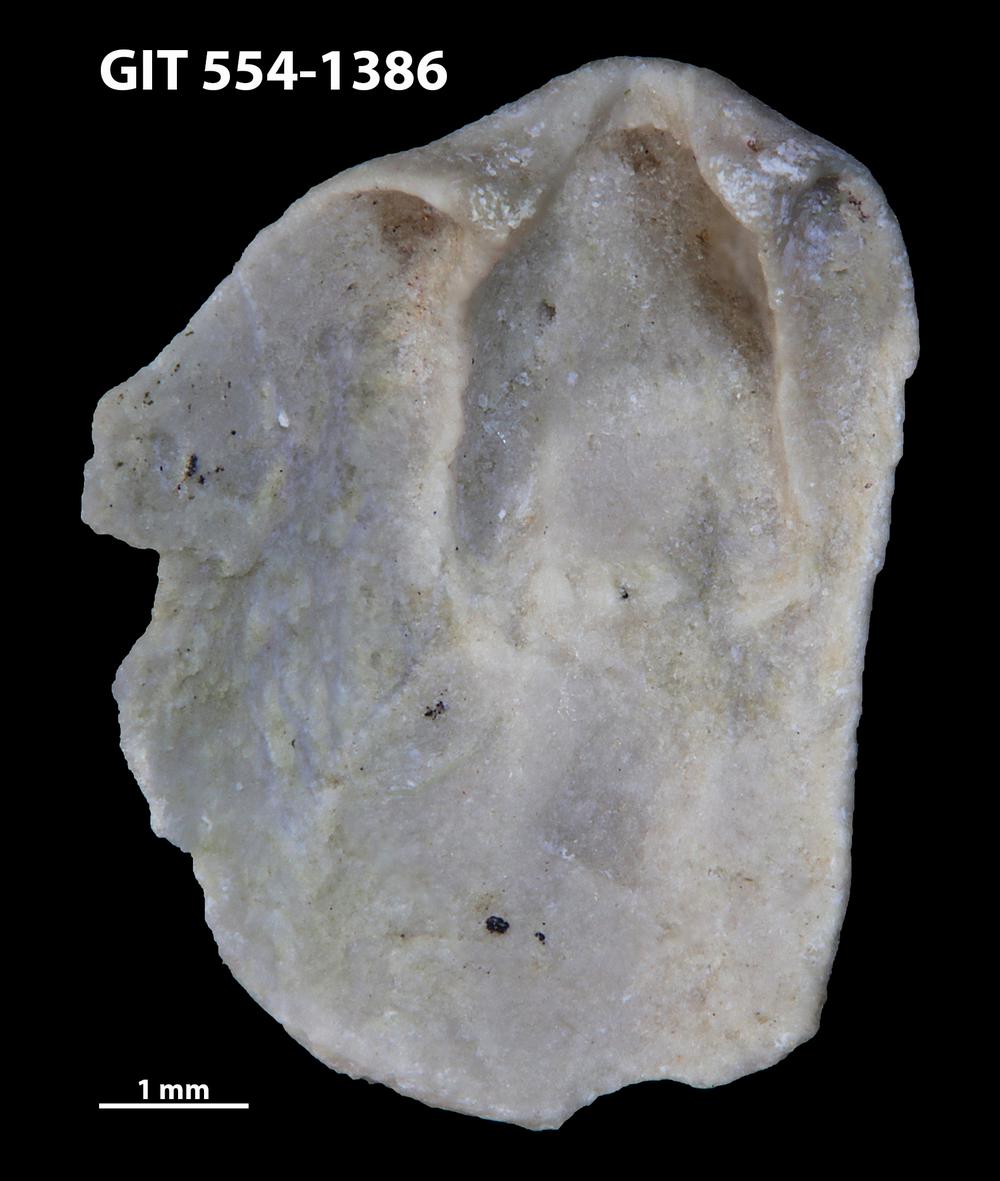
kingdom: Animalia
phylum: Brachiopoda
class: Rhynchonellata
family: Dalmanellidae
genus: Dalmanella
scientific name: Dalmanella cyclica
